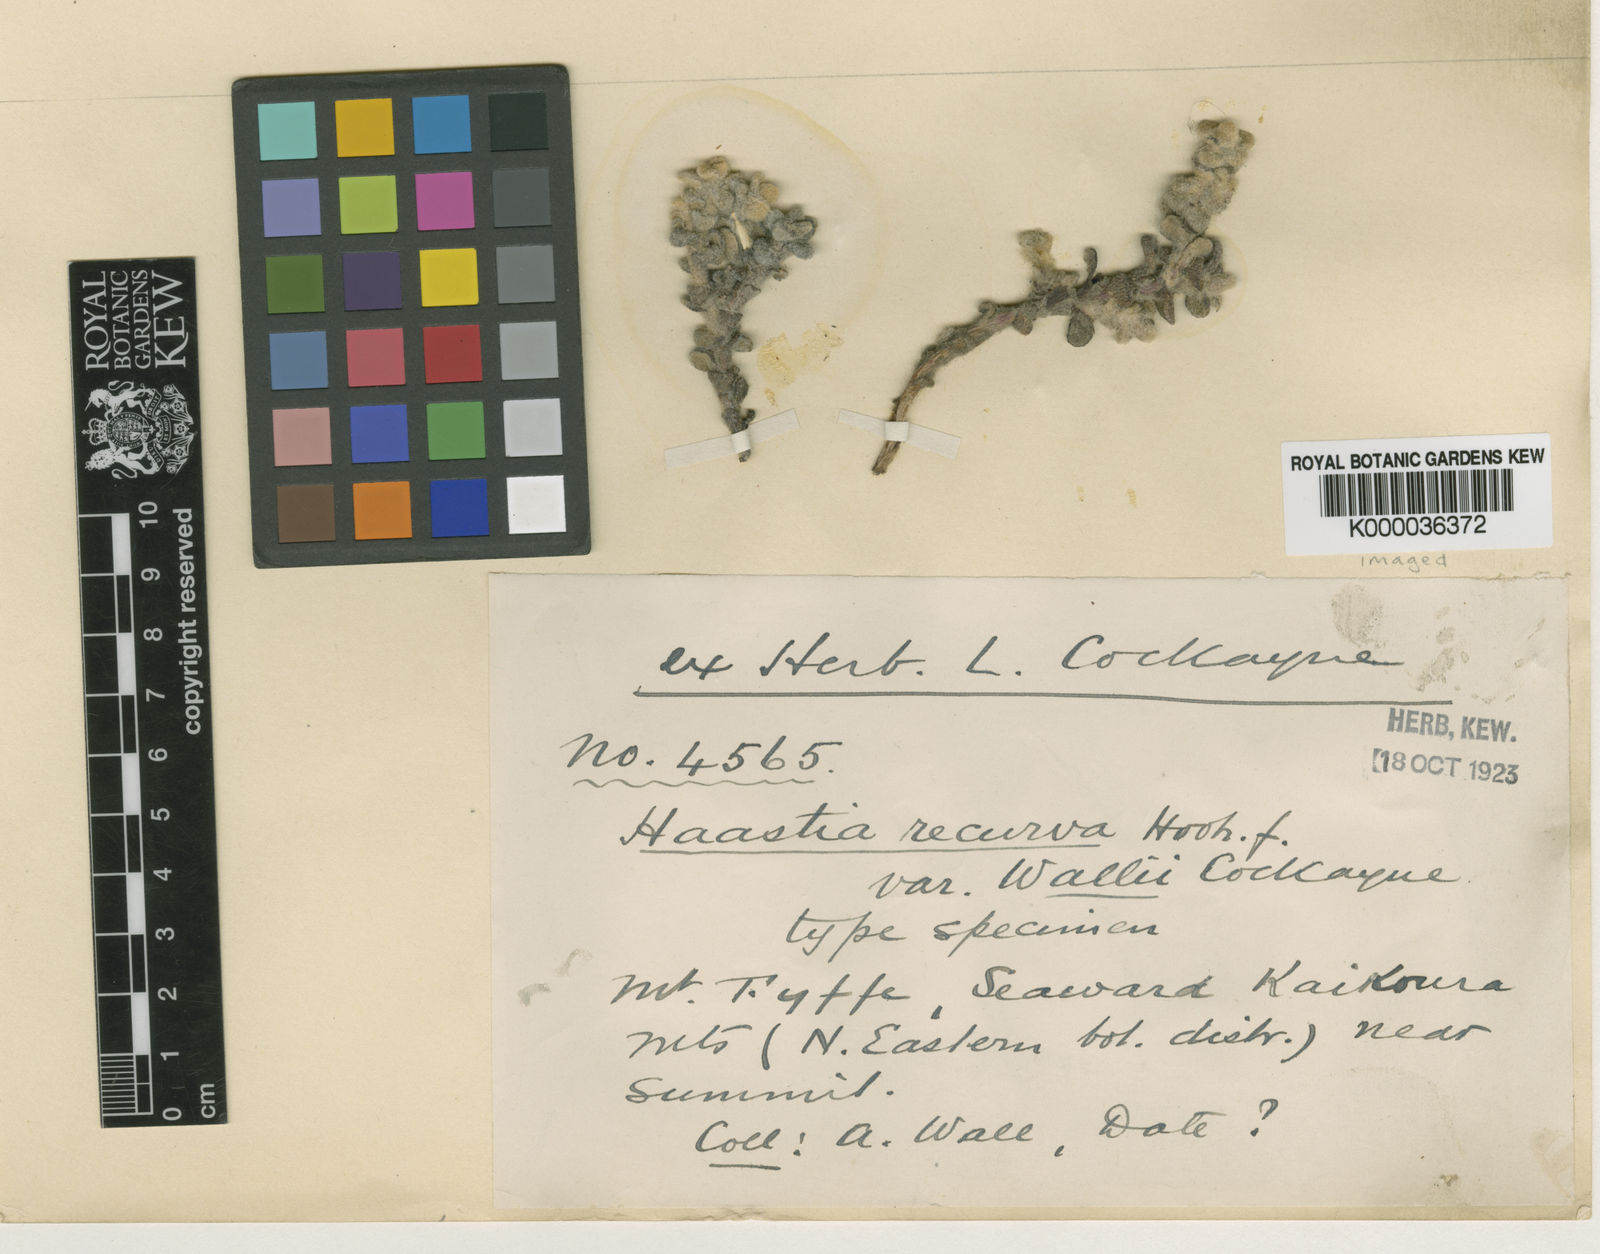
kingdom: Plantae
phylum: Tracheophyta
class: Magnoliopsida
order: Asterales
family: Asteraceae
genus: Haastia
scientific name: Haastia recurva
